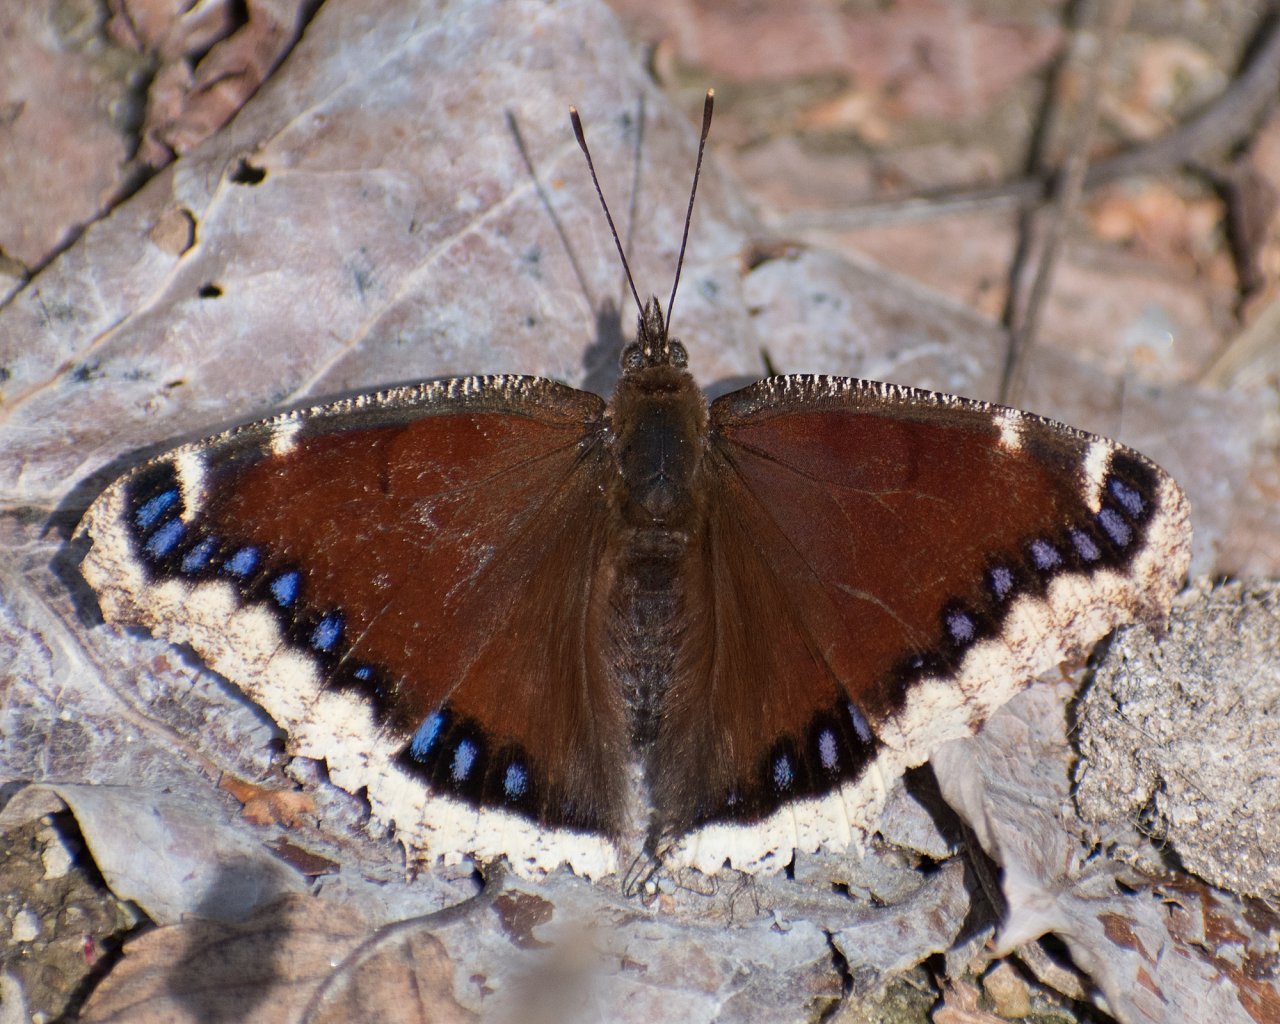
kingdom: Animalia
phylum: Arthropoda
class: Insecta
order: Lepidoptera
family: Nymphalidae
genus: Nymphalis
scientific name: Nymphalis antiopa
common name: Mourning Cloak
